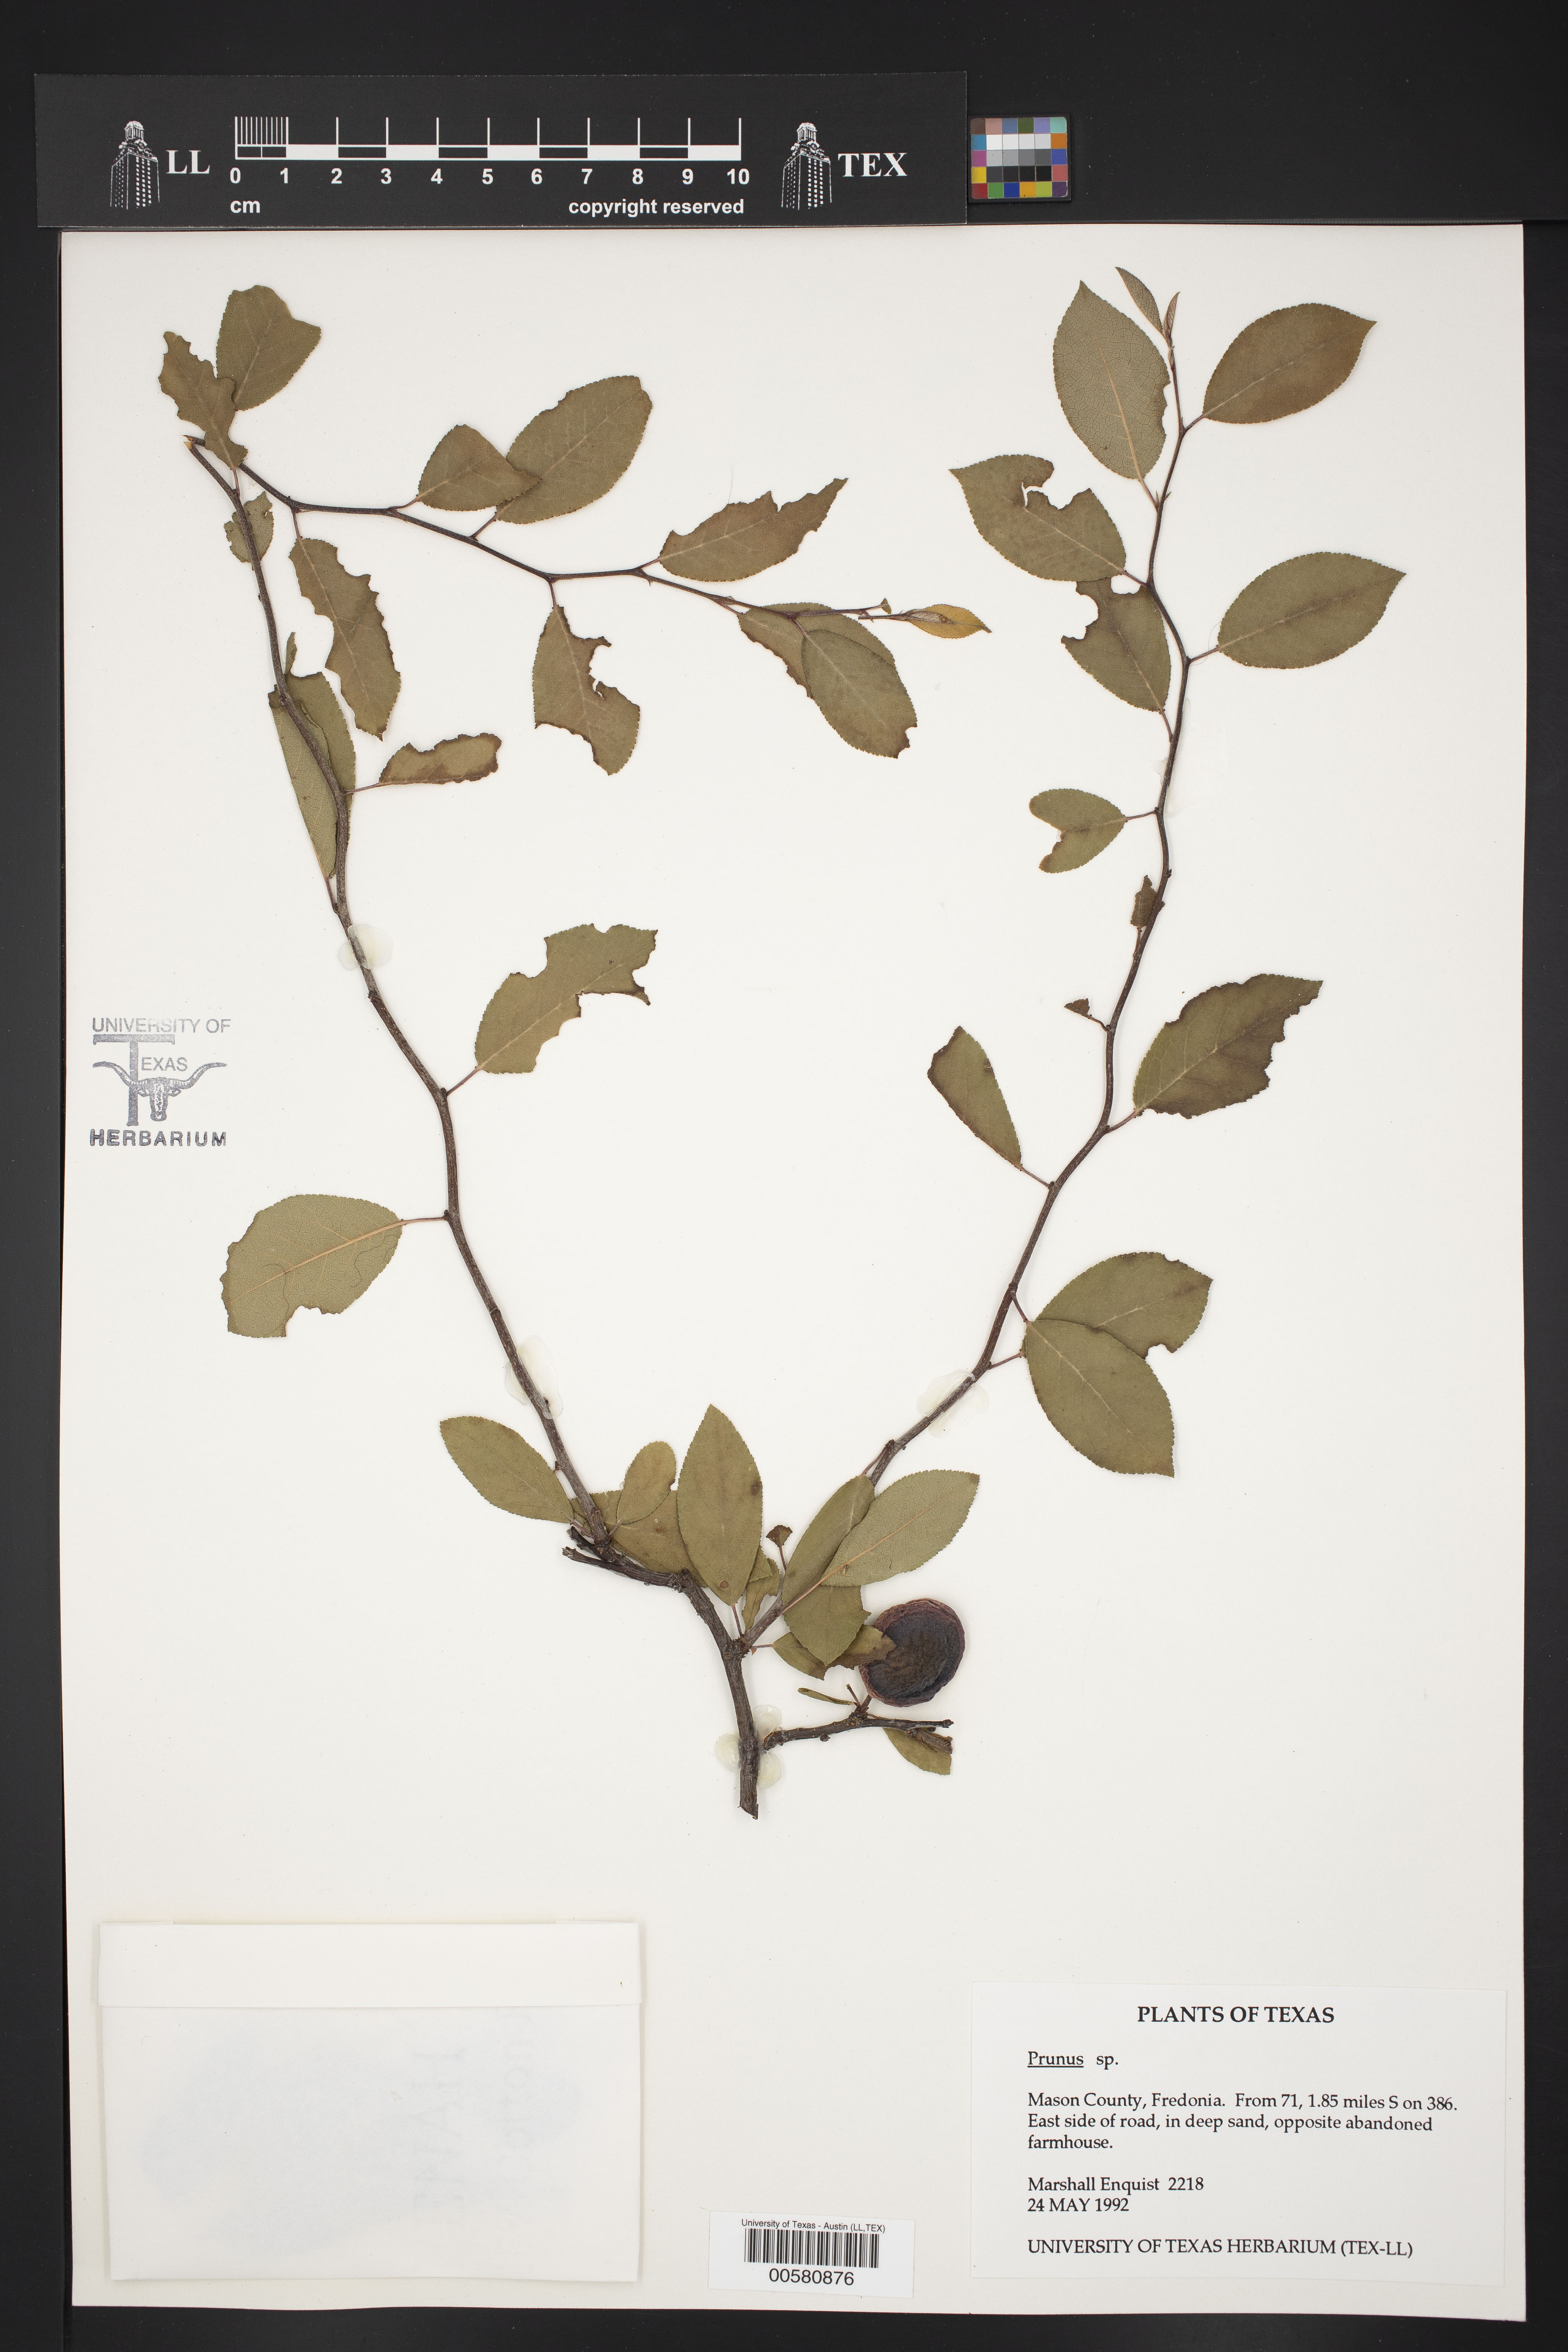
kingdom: Plantae
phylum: Tracheophyta
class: Magnoliopsida
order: Rosales
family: Rosaceae
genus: Prunus
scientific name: Prunus
